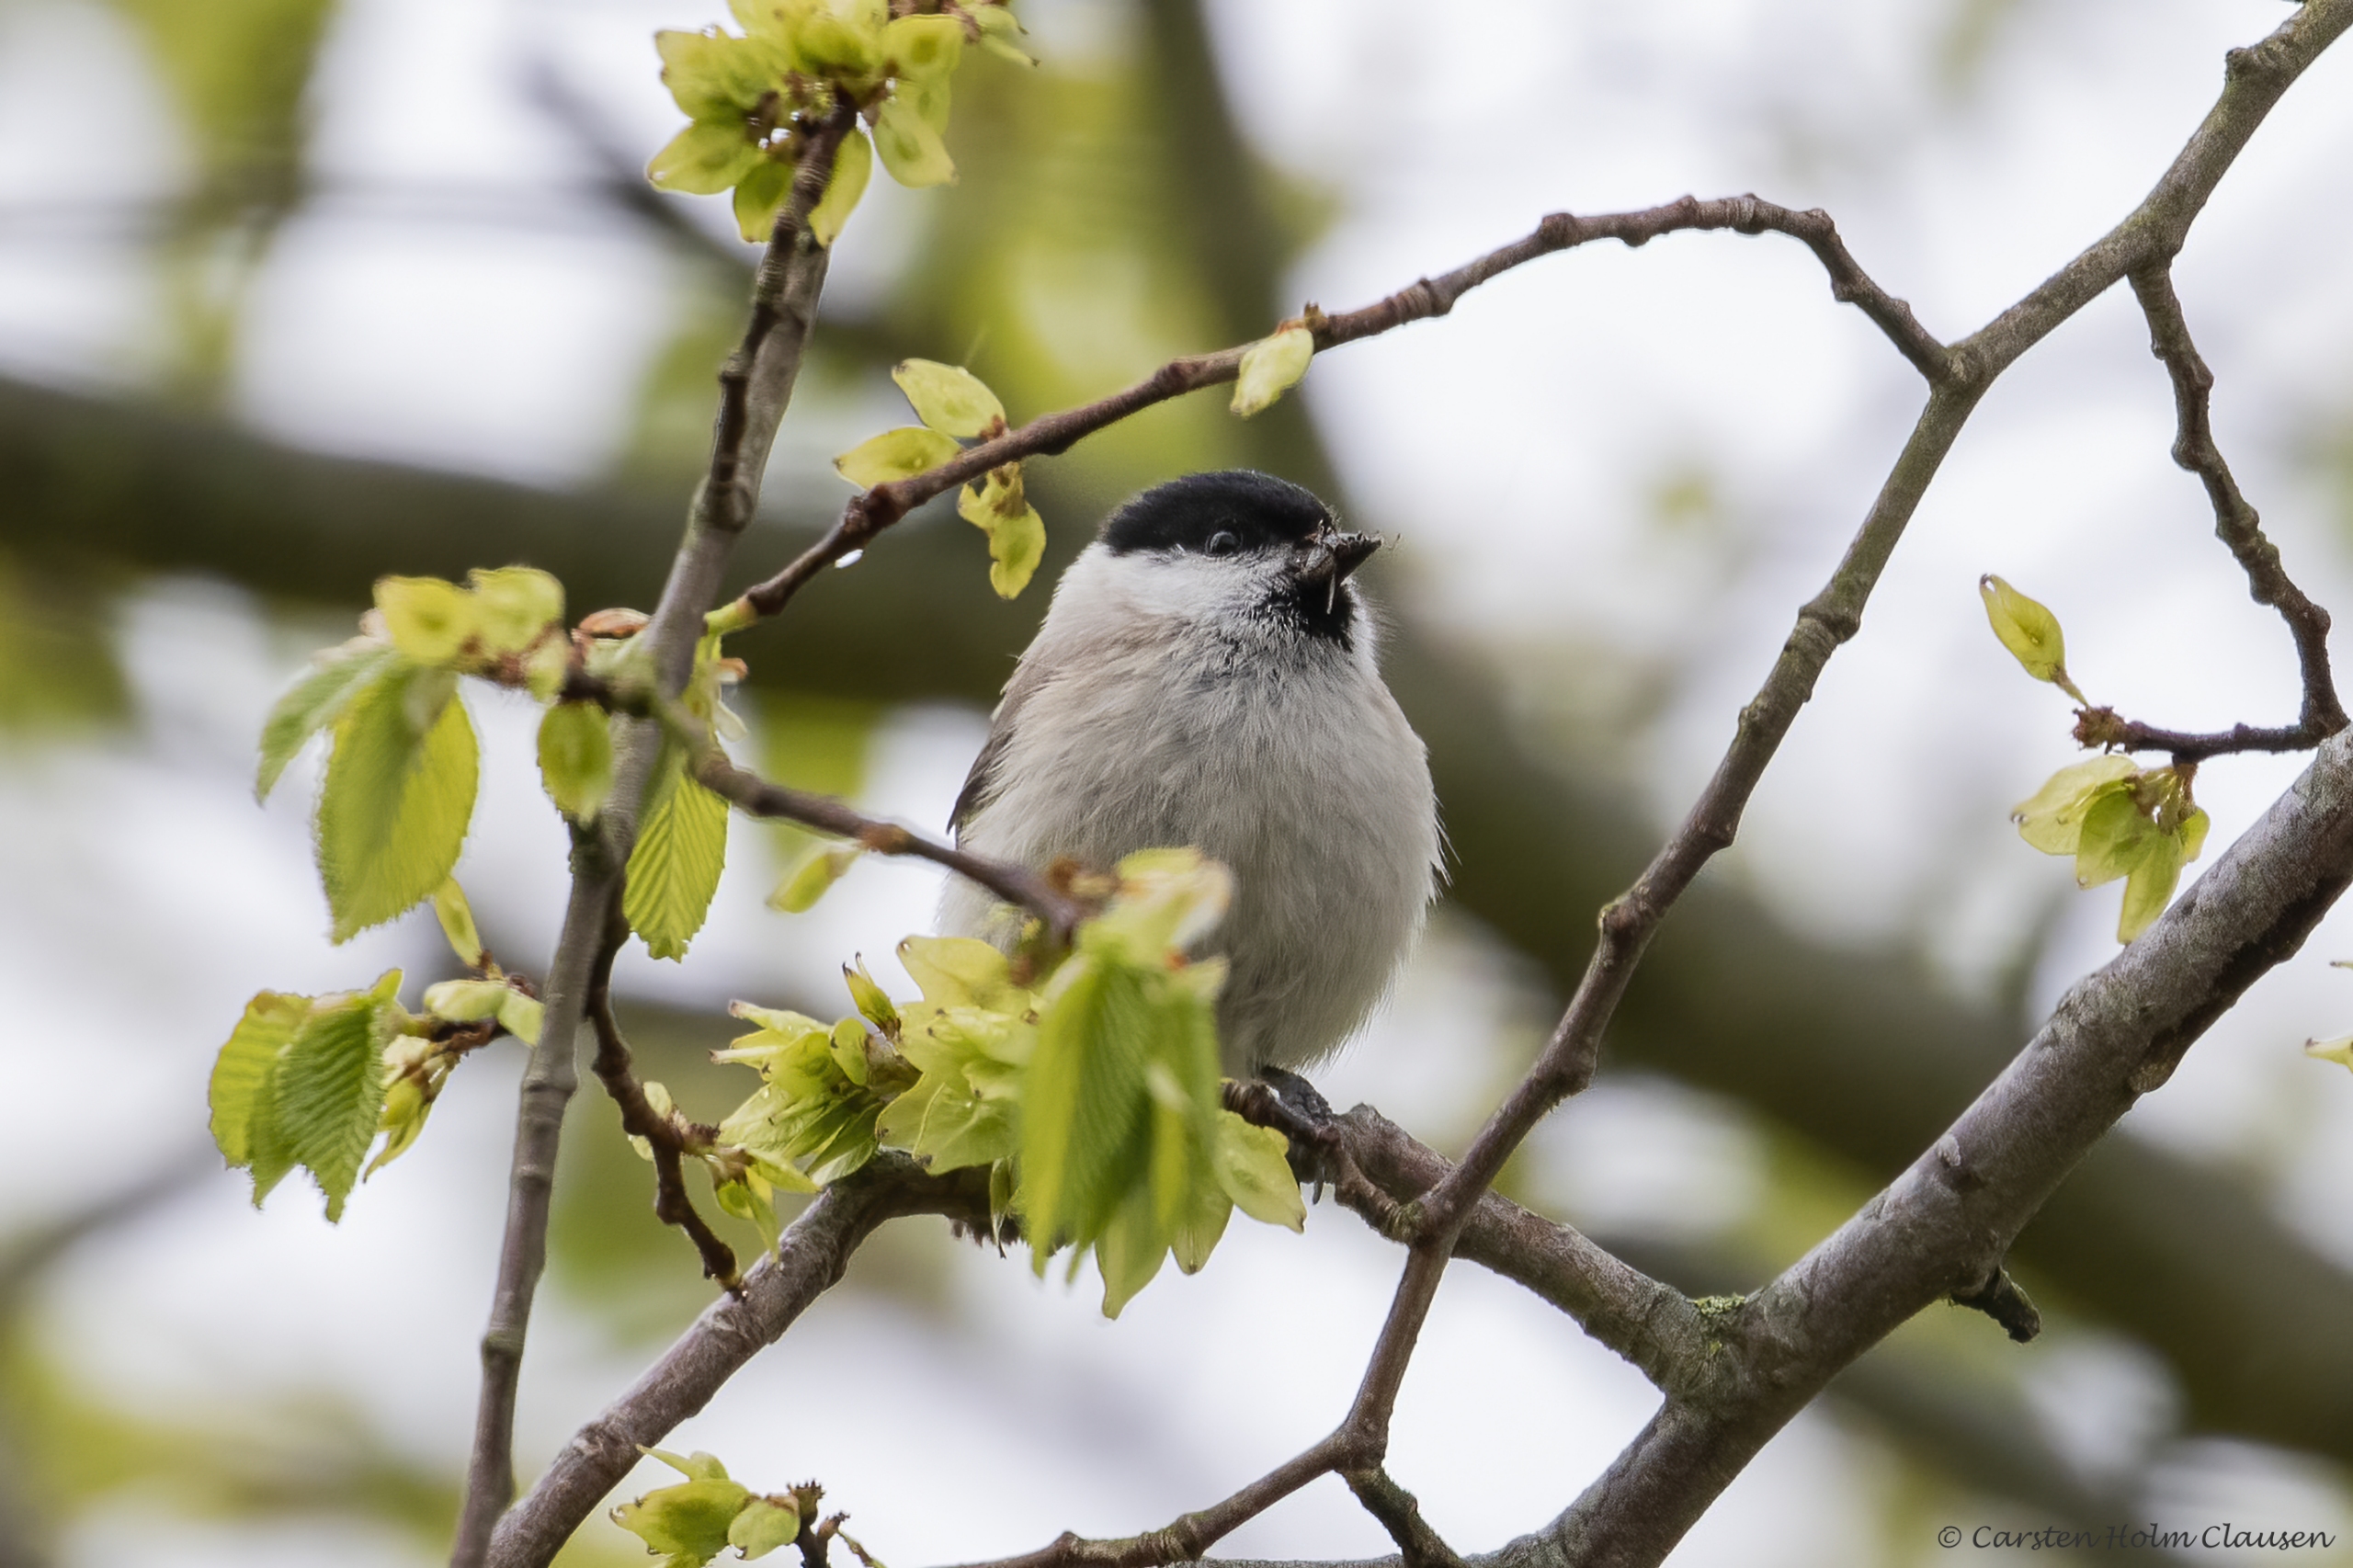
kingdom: Animalia
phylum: Chordata
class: Aves
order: Passeriformes
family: Paridae
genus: Poecile
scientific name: Poecile palustris
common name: Sumpmejse
